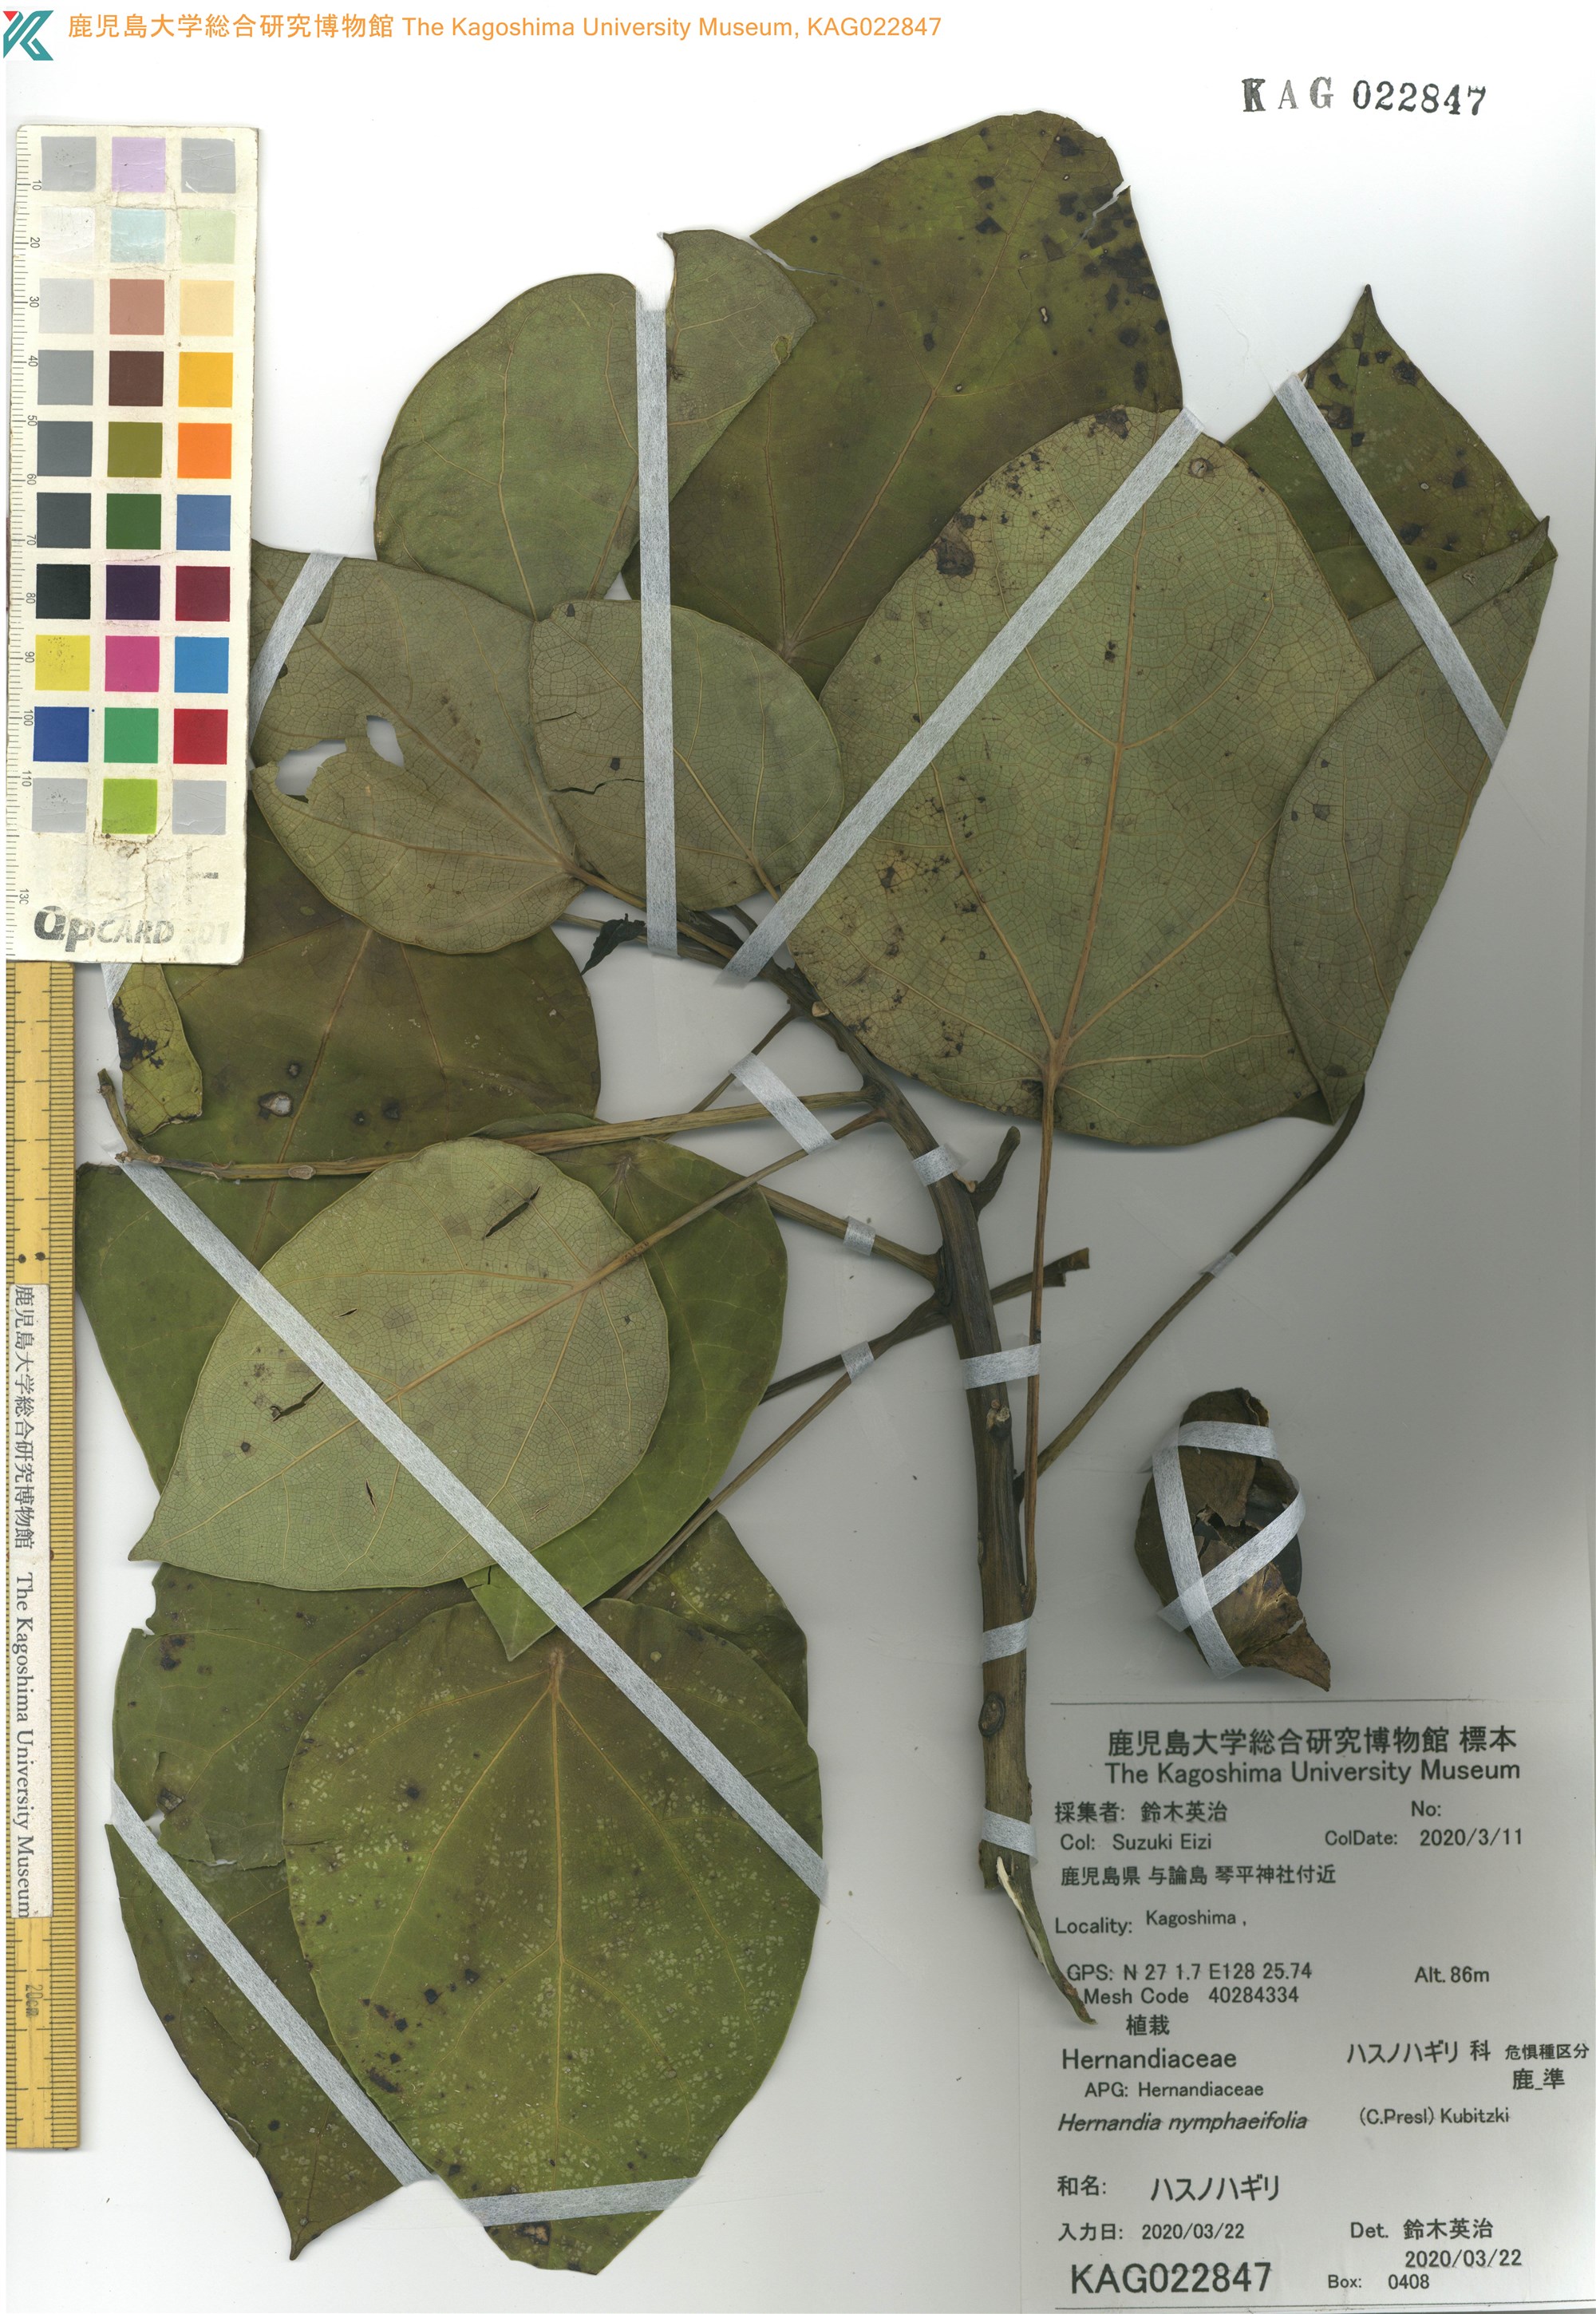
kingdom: Plantae
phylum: Tracheophyta
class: Magnoliopsida
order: Laurales
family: Hernandiaceae
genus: Hernandia
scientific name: Hernandia nymphaeifolia
